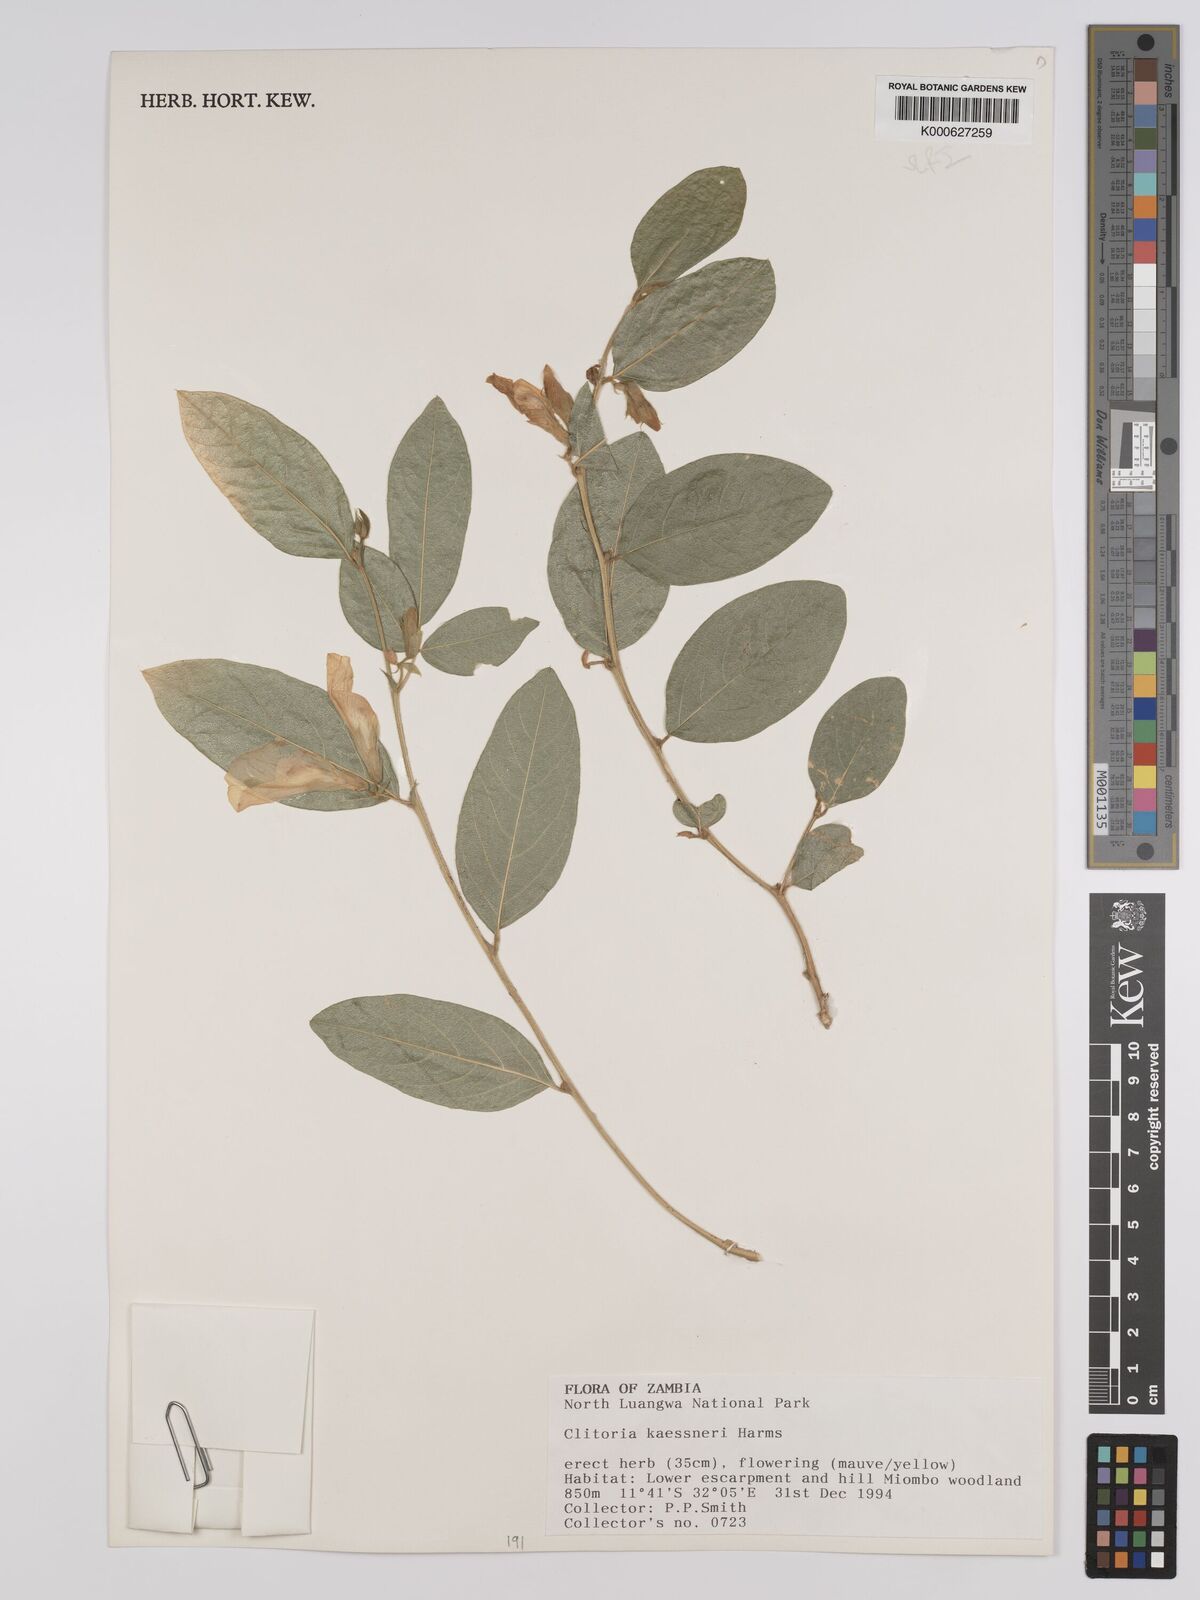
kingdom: Plantae
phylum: Tracheophyta
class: Magnoliopsida
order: Fabales
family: Fabaceae
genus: Clitoria
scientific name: Clitoria kaessneri
